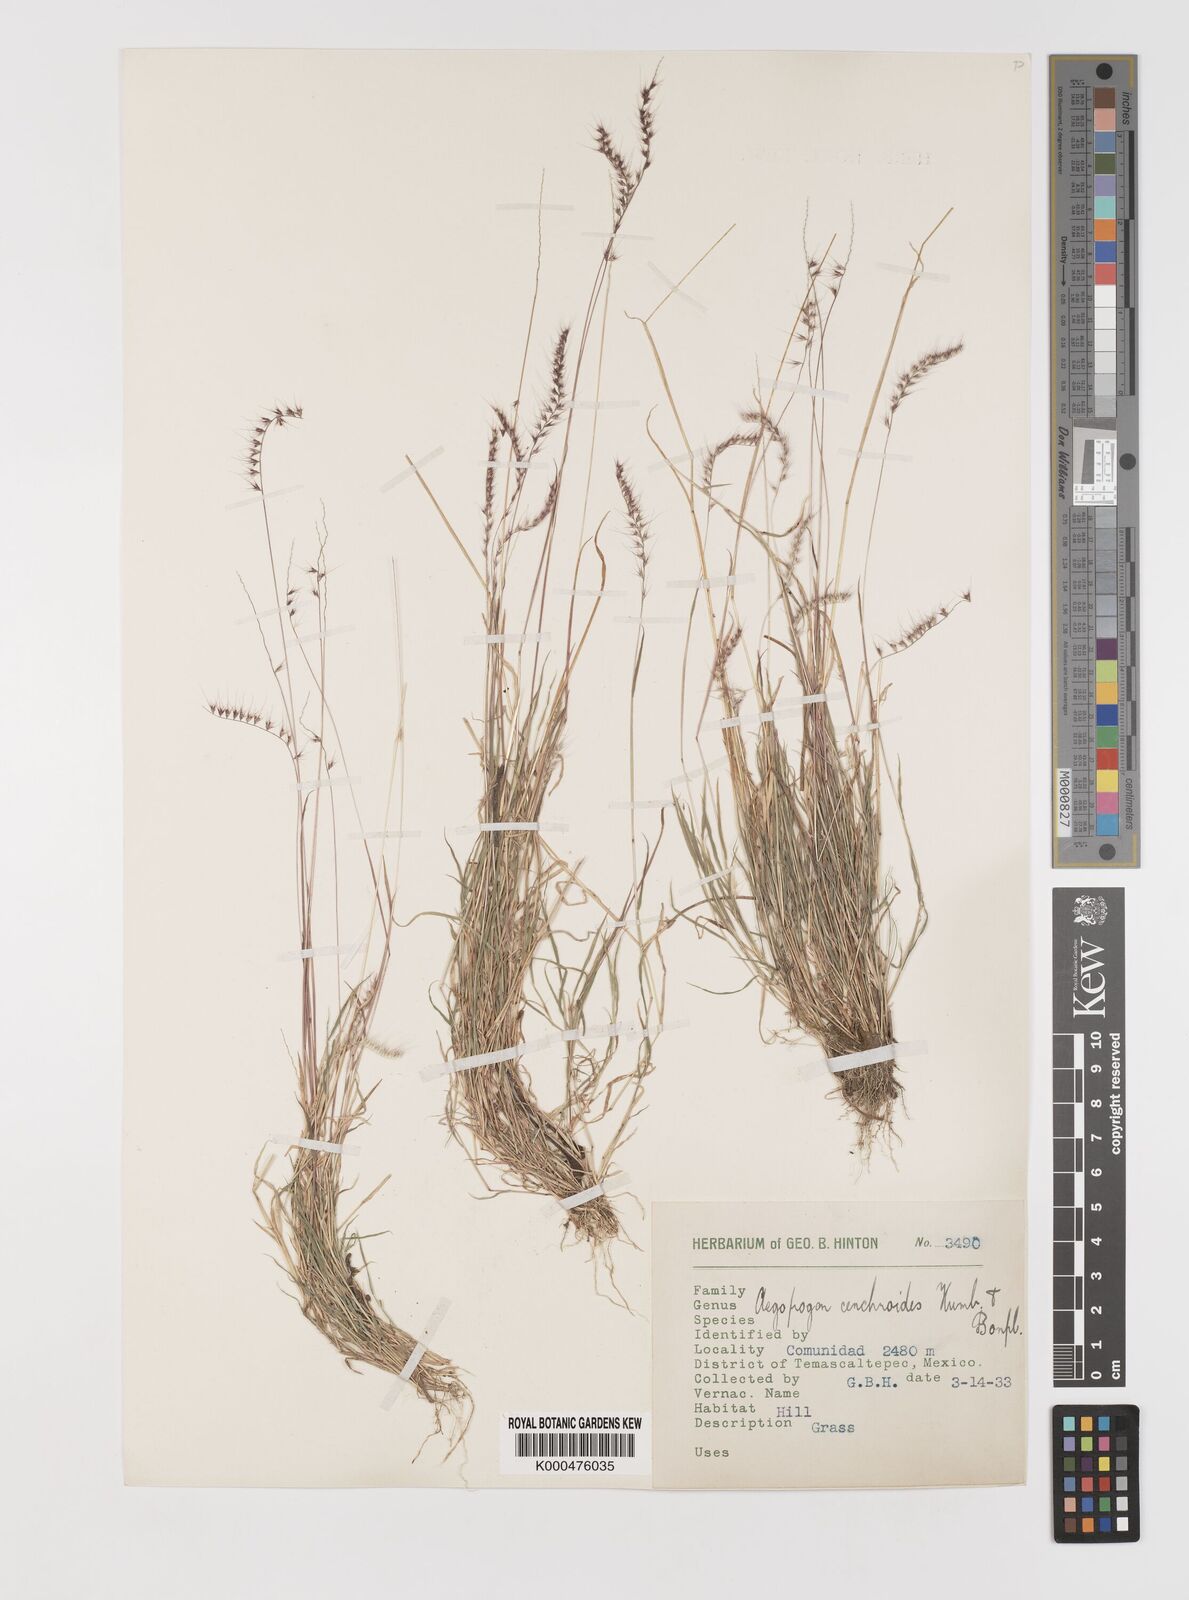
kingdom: Plantae
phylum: Tracheophyta
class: Liliopsida
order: Poales
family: Poaceae
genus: Muhlenbergia
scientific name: Muhlenbergia cenchroides
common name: Relaxgrass
